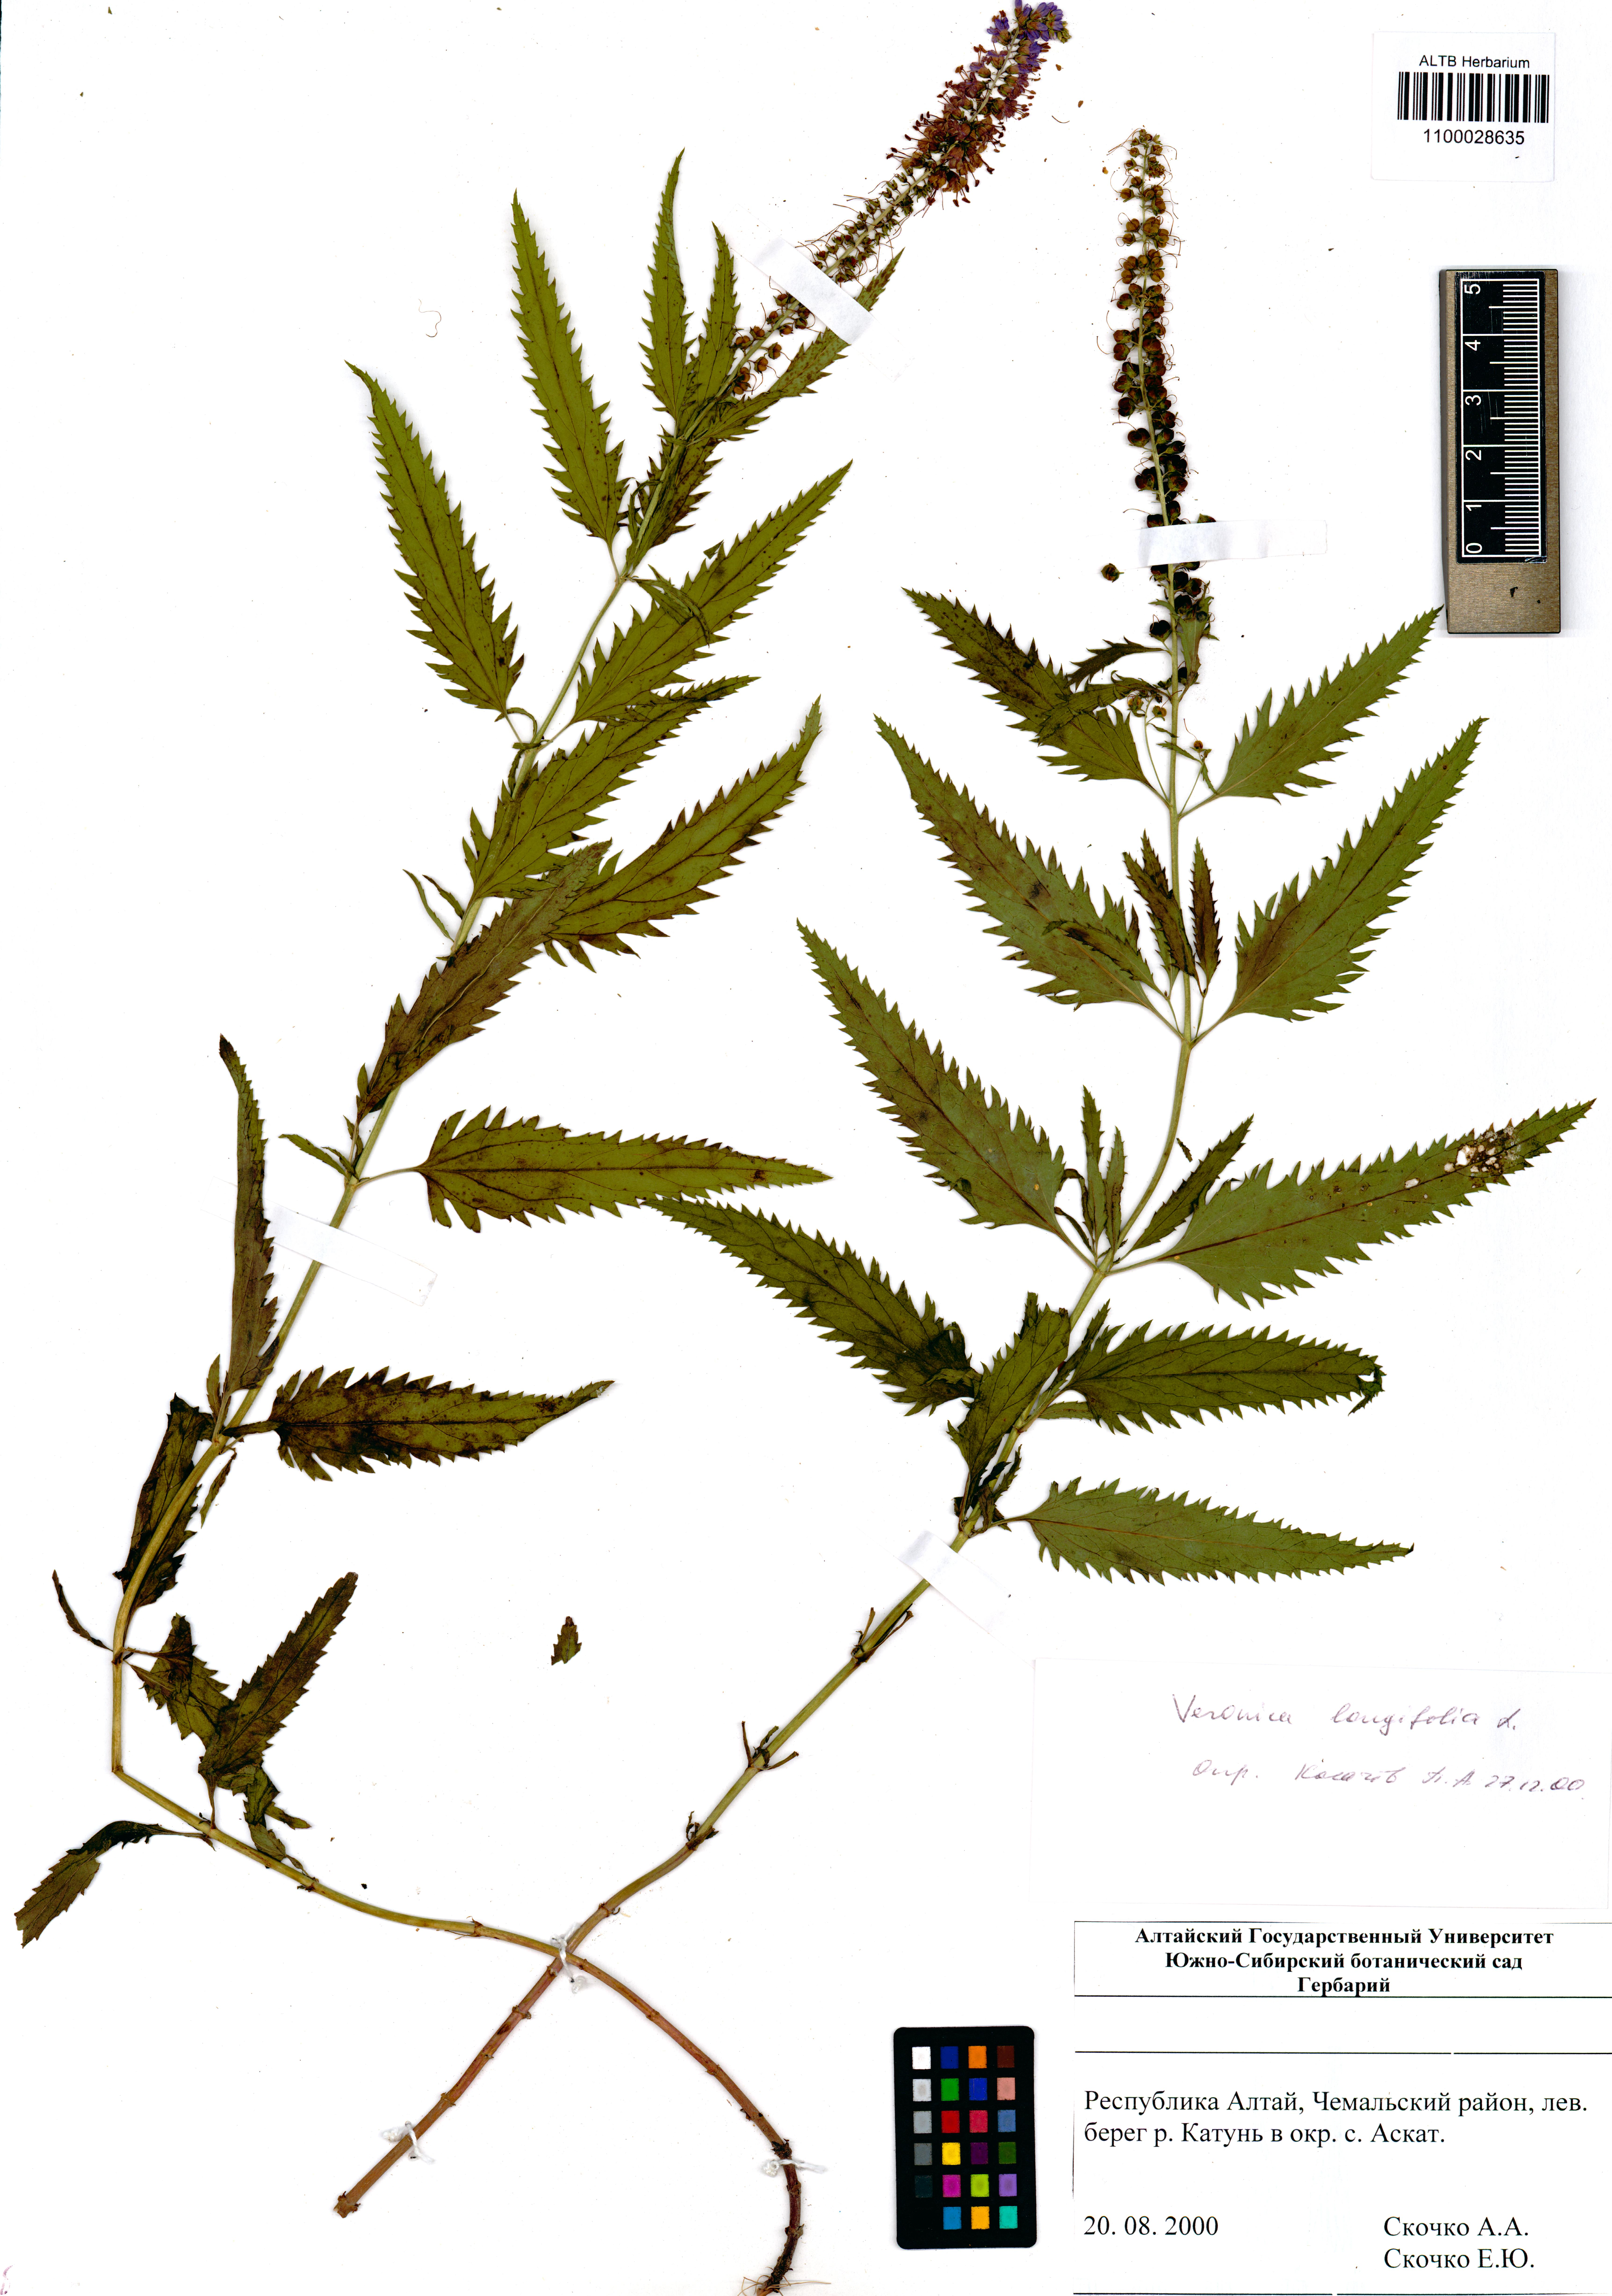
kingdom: Plantae
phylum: Tracheophyta
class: Magnoliopsida
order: Lamiales
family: Plantaginaceae
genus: Veronica
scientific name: Veronica longifolia
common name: Garden speedwell
